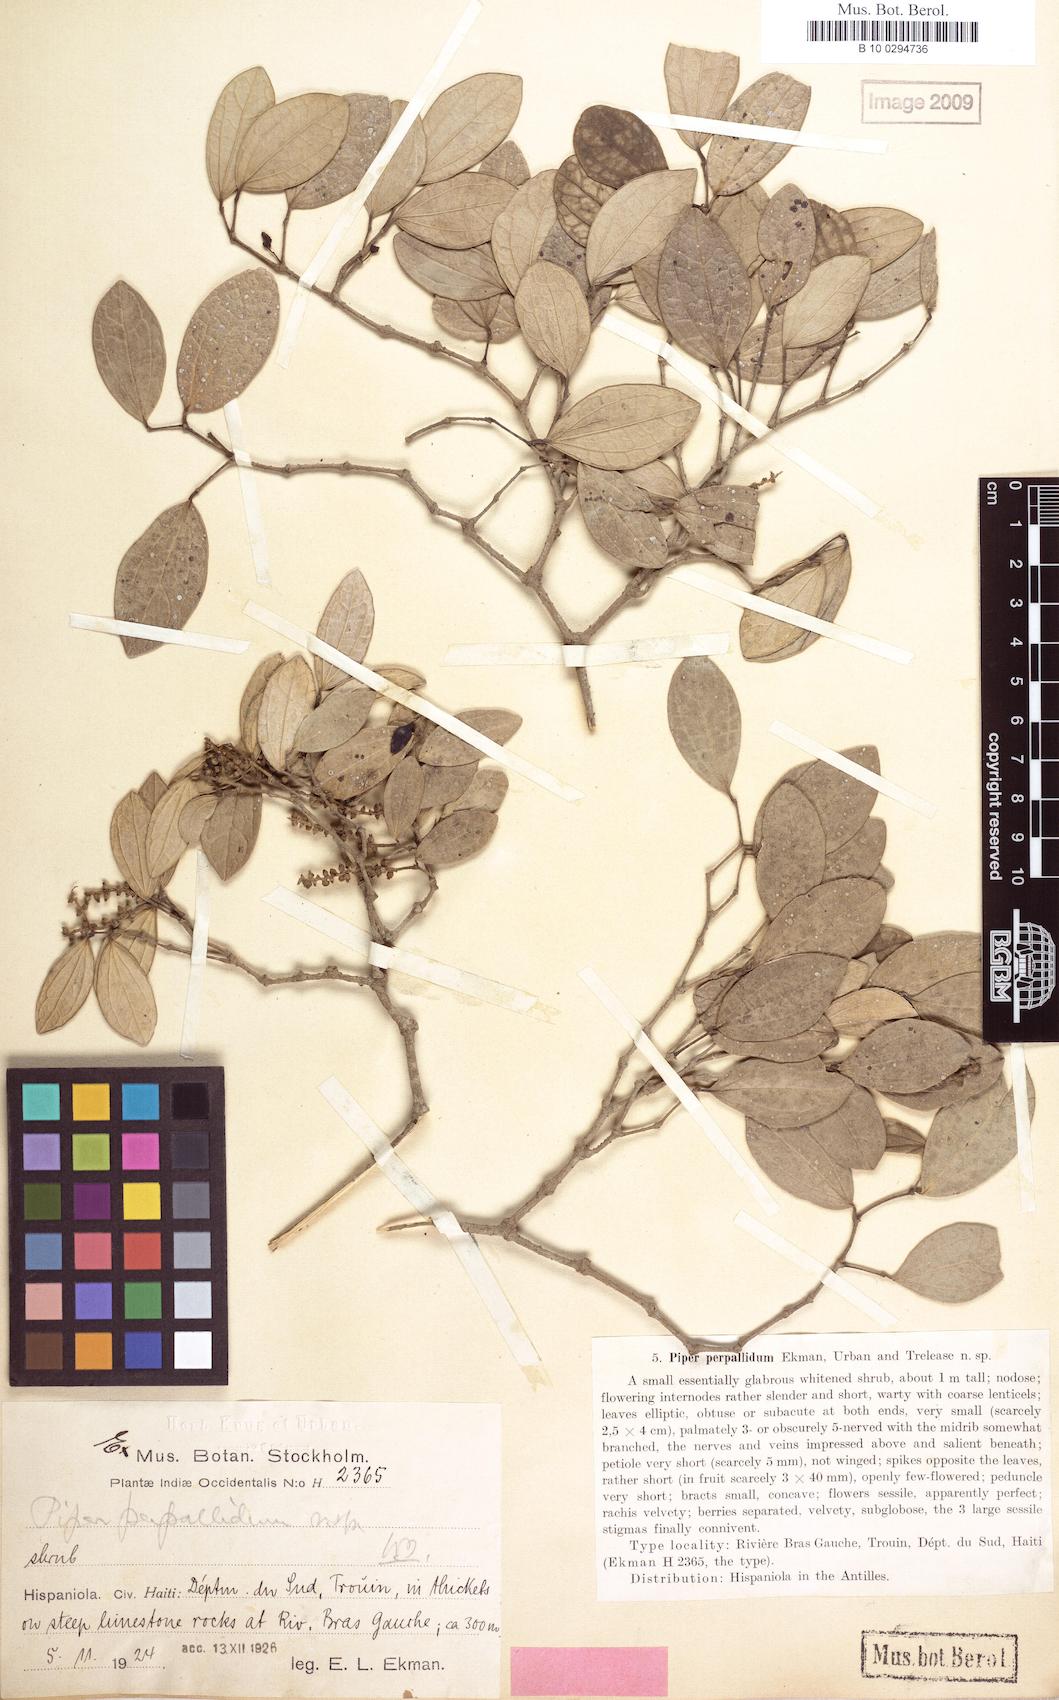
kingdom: Plantae
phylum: Tracheophyta
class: Magnoliopsida
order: Piperales
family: Piperaceae
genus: Piper
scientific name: Piper perpallidum
